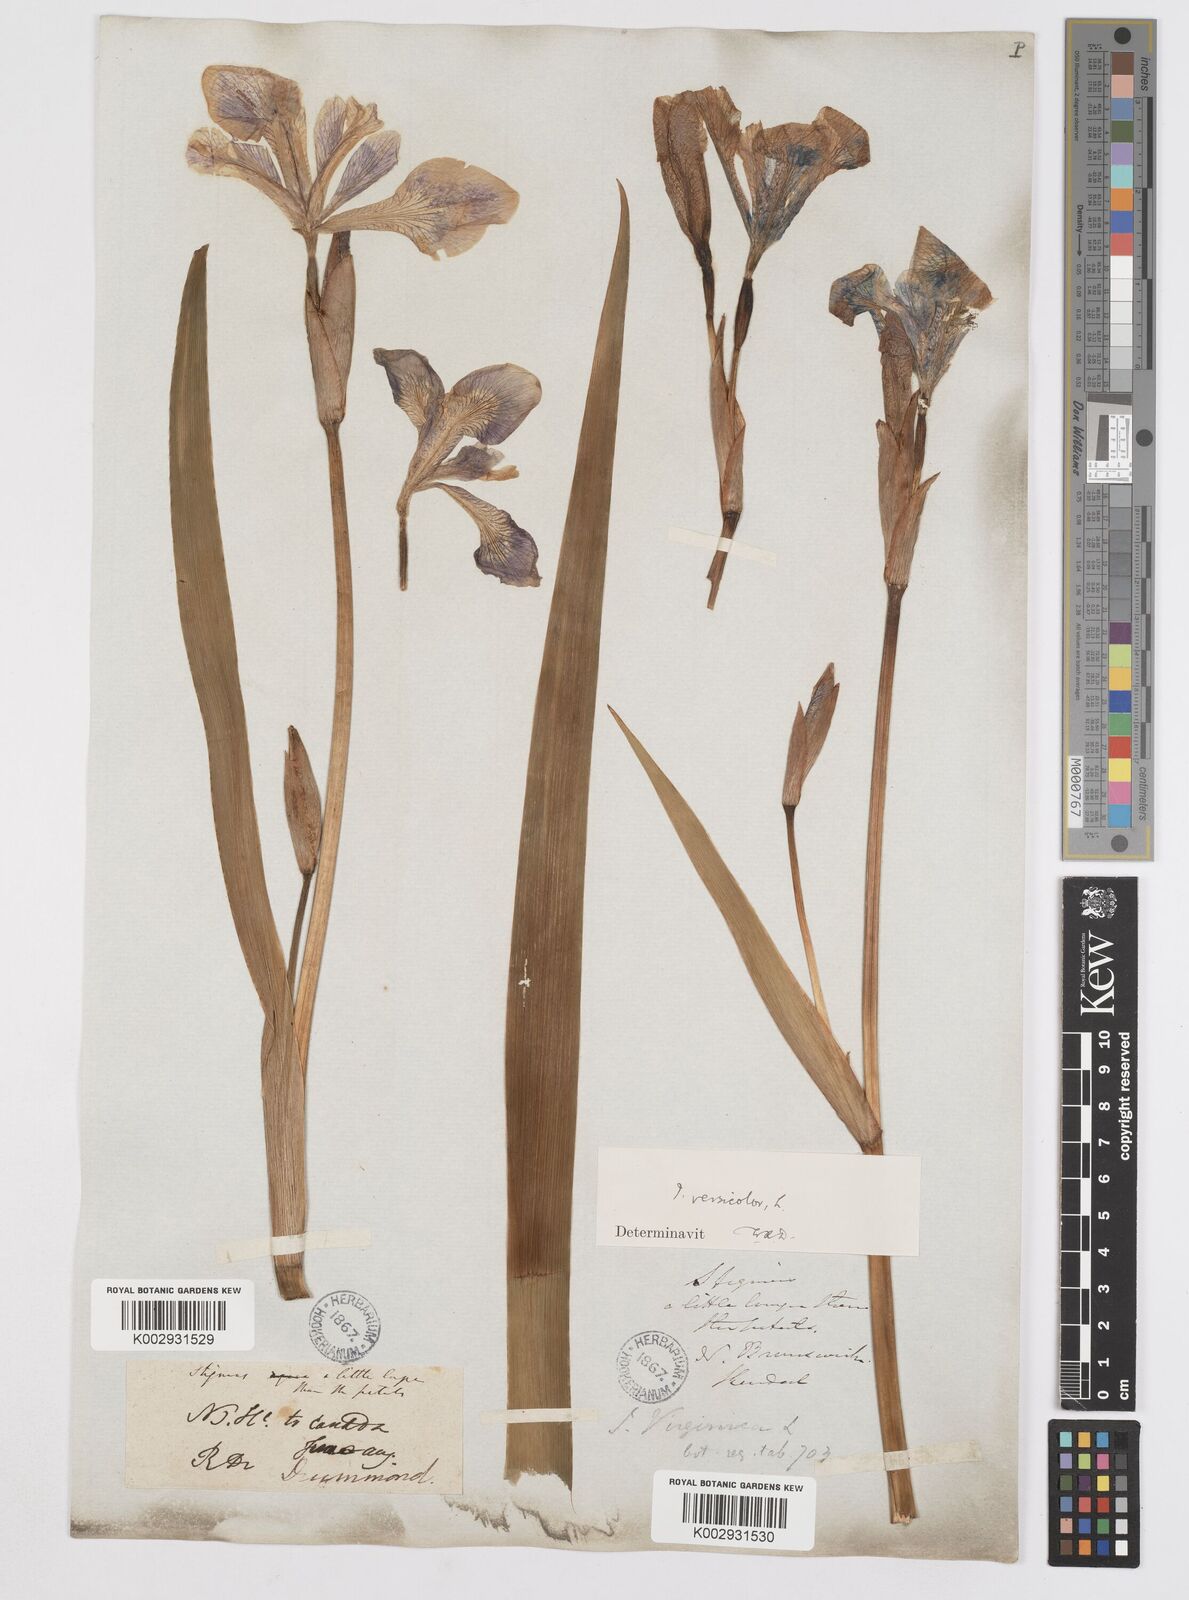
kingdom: Plantae
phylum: Tracheophyta
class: Liliopsida
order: Asparagales
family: Iridaceae
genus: Iris
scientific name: Iris versicolor
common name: Purple iris
